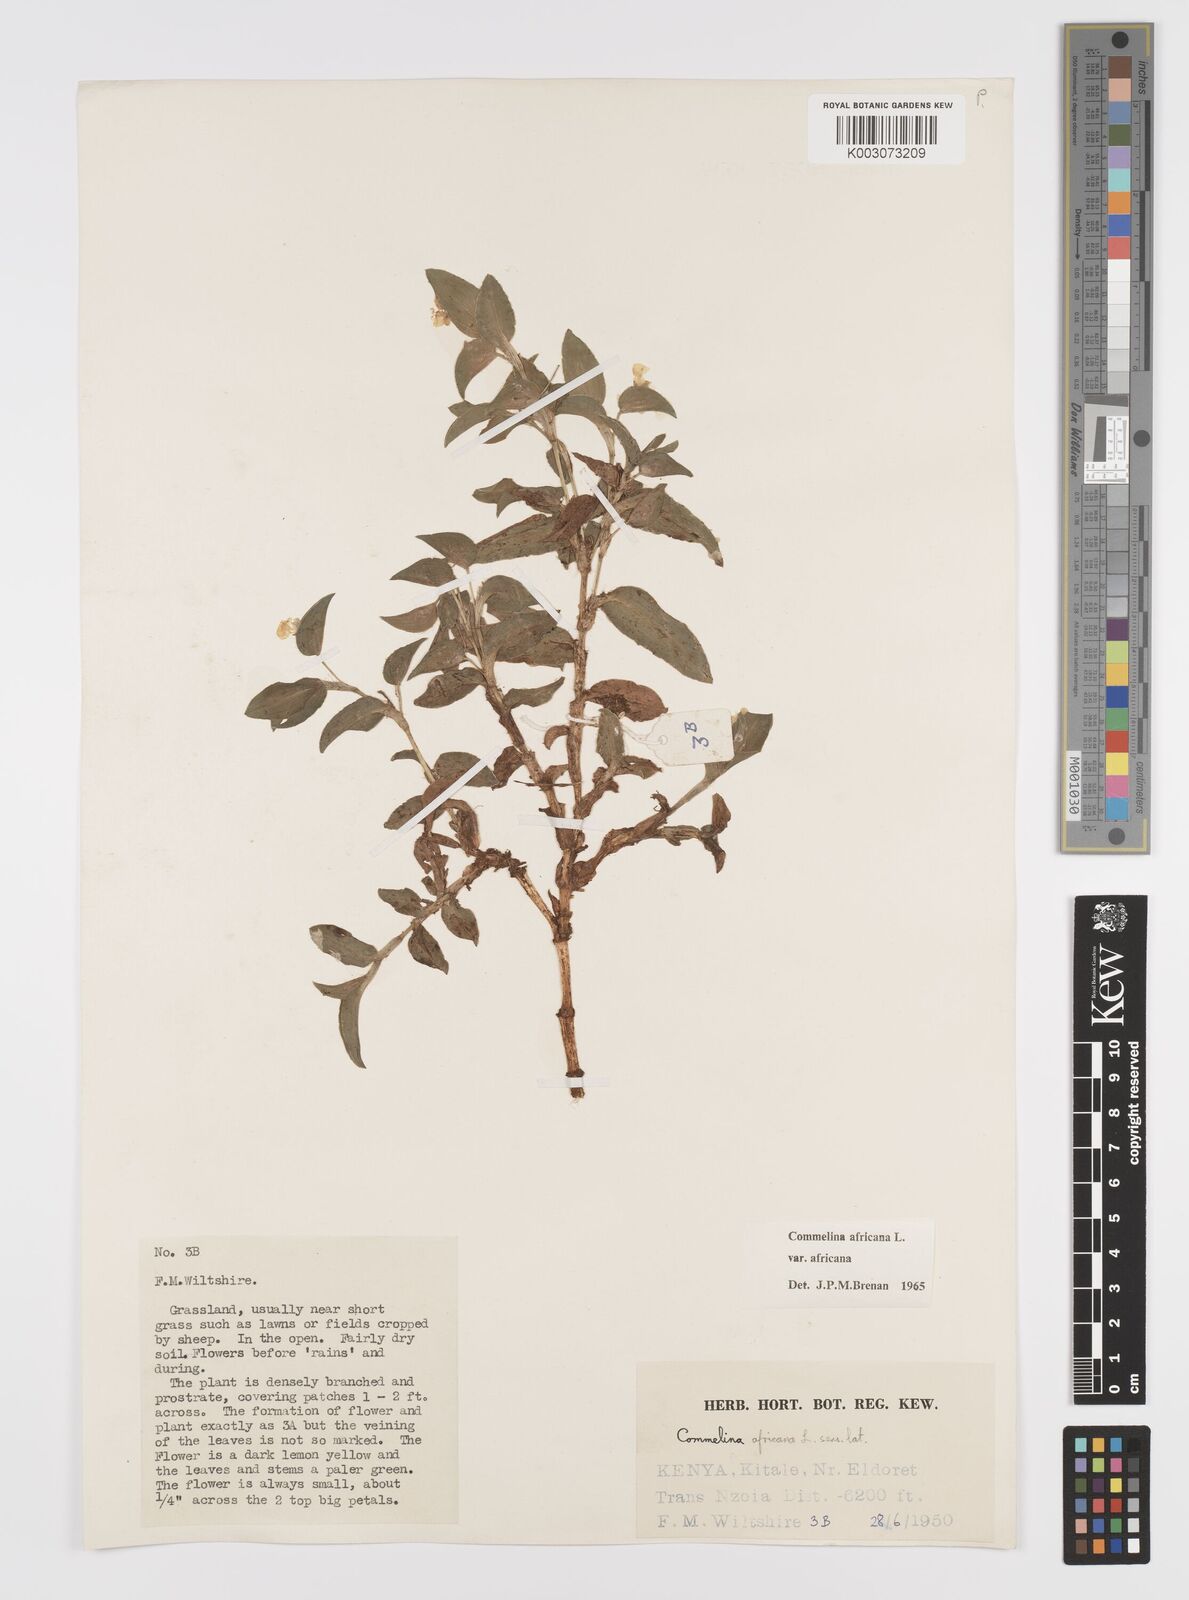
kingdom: Plantae
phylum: Tracheophyta
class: Liliopsida
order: Commelinales
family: Commelinaceae
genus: Commelina
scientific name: Commelina africana
